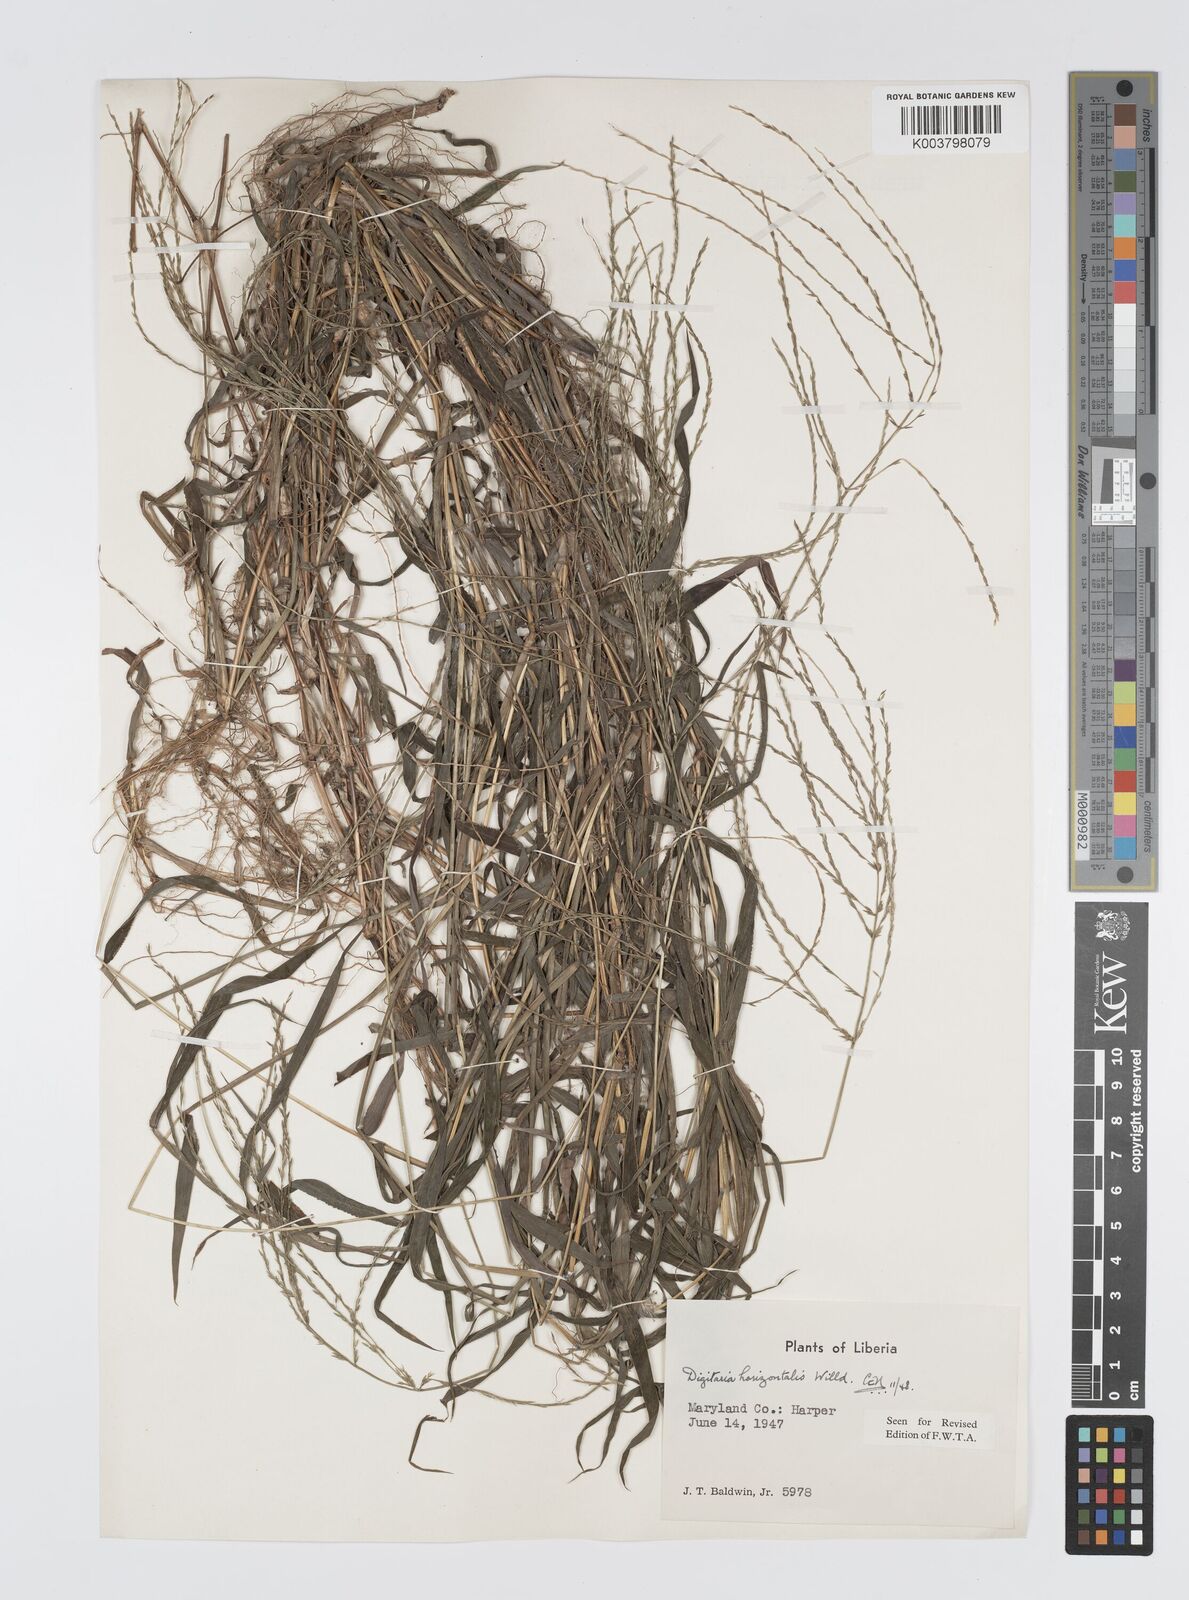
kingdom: Plantae
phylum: Tracheophyta
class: Liliopsida
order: Poales
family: Poaceae
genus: Digitaria
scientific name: Digitaria horizontalis
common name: Jamaican crabgrass
